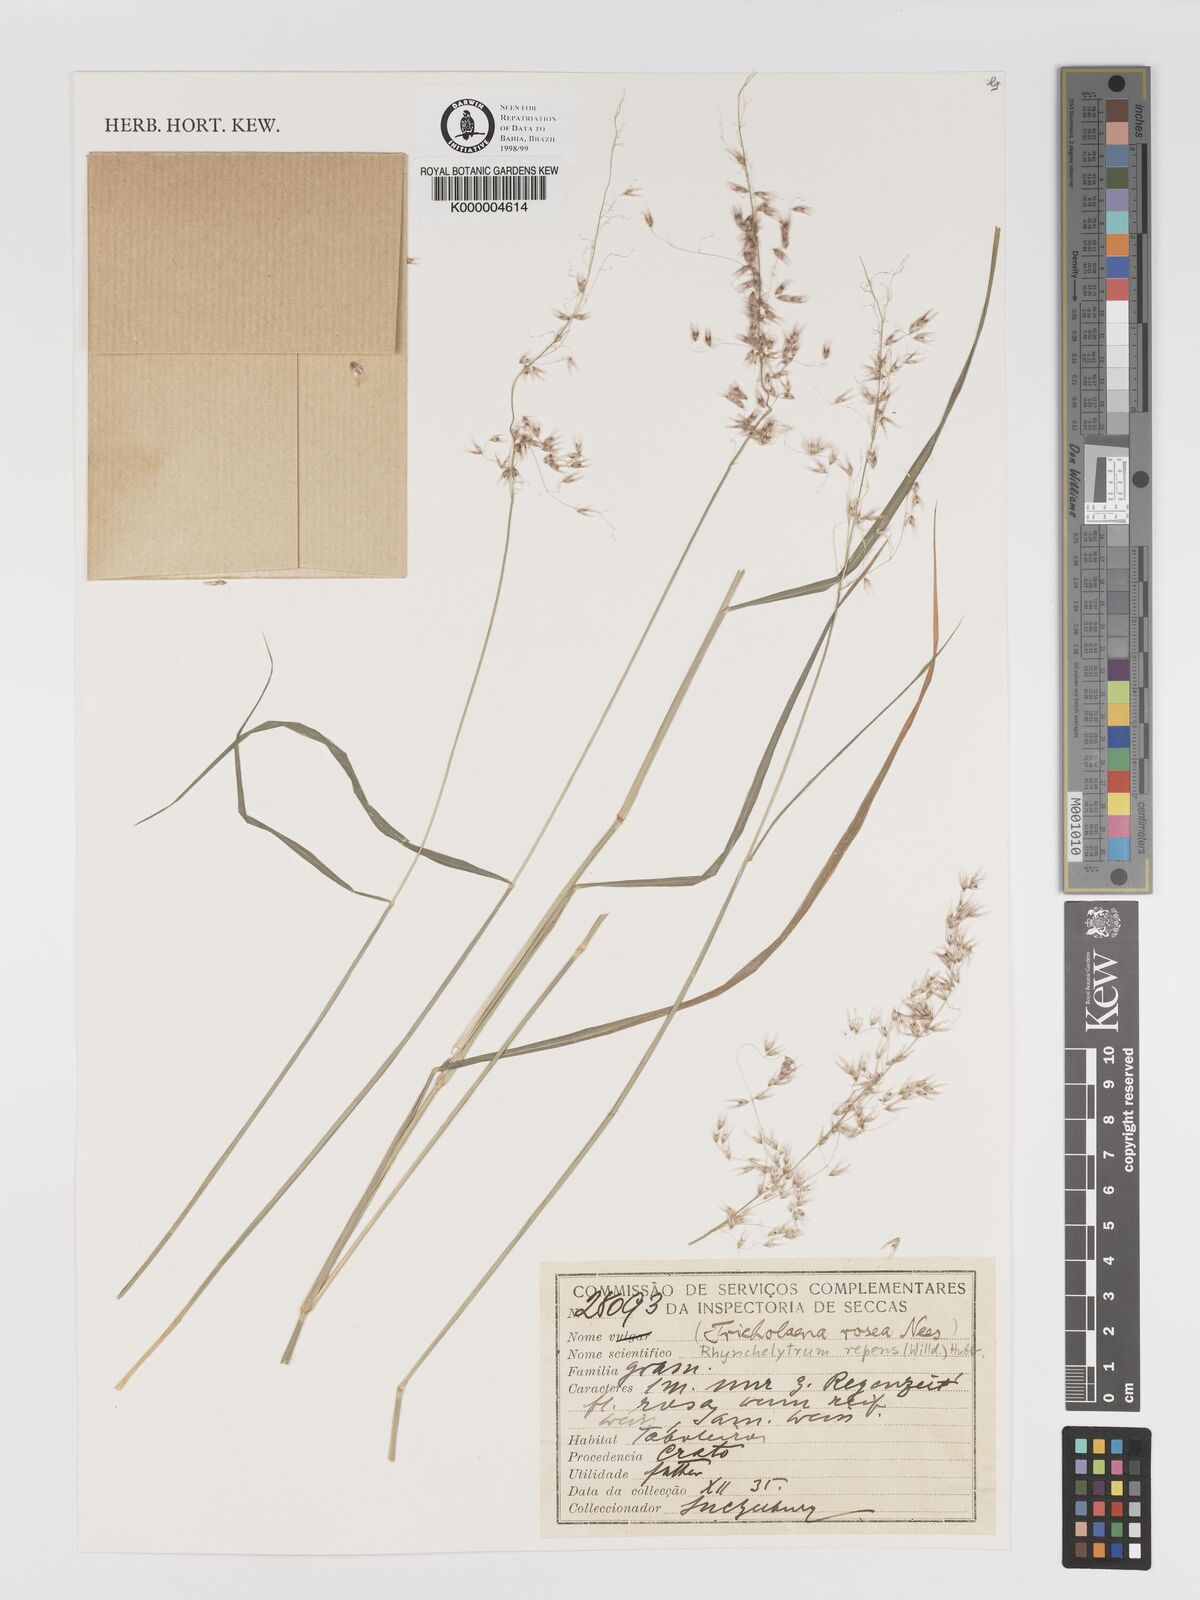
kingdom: Plantae
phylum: Tracheophyta
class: Liliopsida
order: Poales
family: Poaceae
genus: Melinis
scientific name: Melinis repens
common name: Rose natal grass
